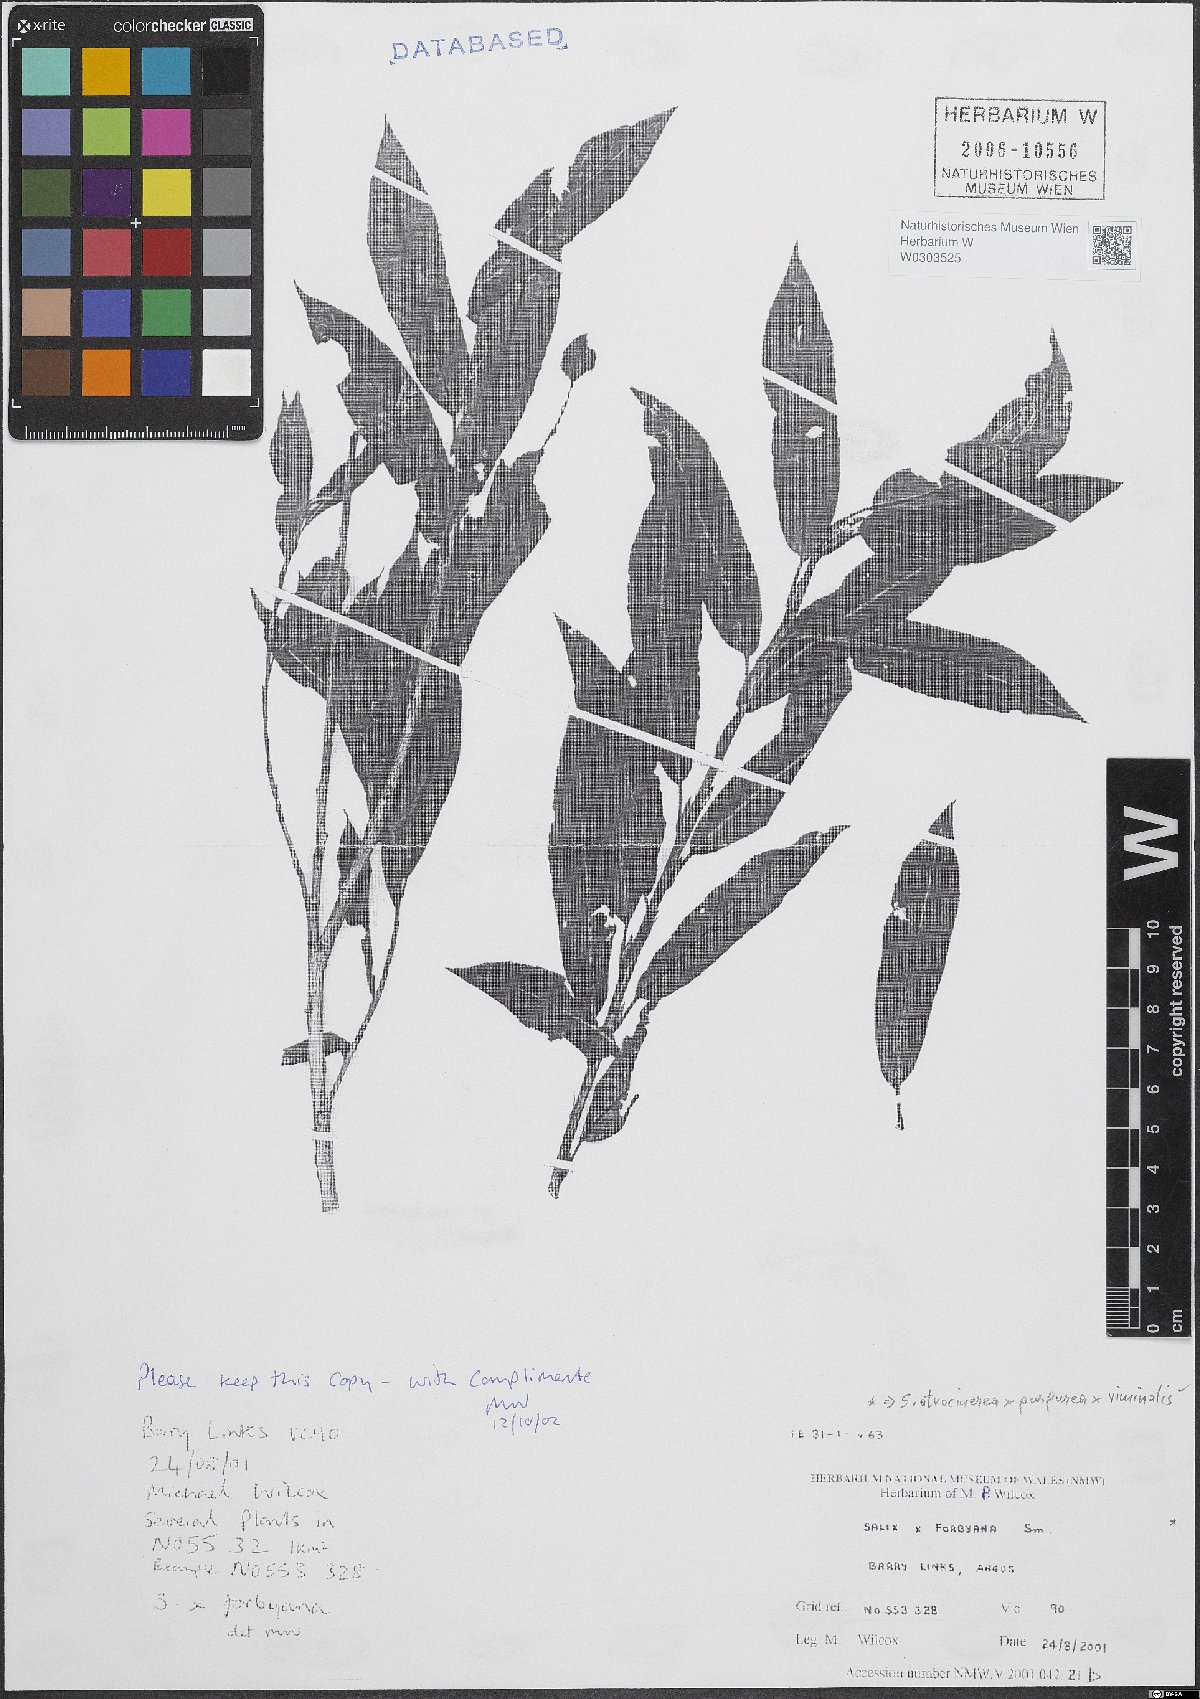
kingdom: Plantae
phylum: Tracheophyta
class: Magnoliopsida
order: Malpighiales
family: Salicaceae
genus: Salix
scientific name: Salix
